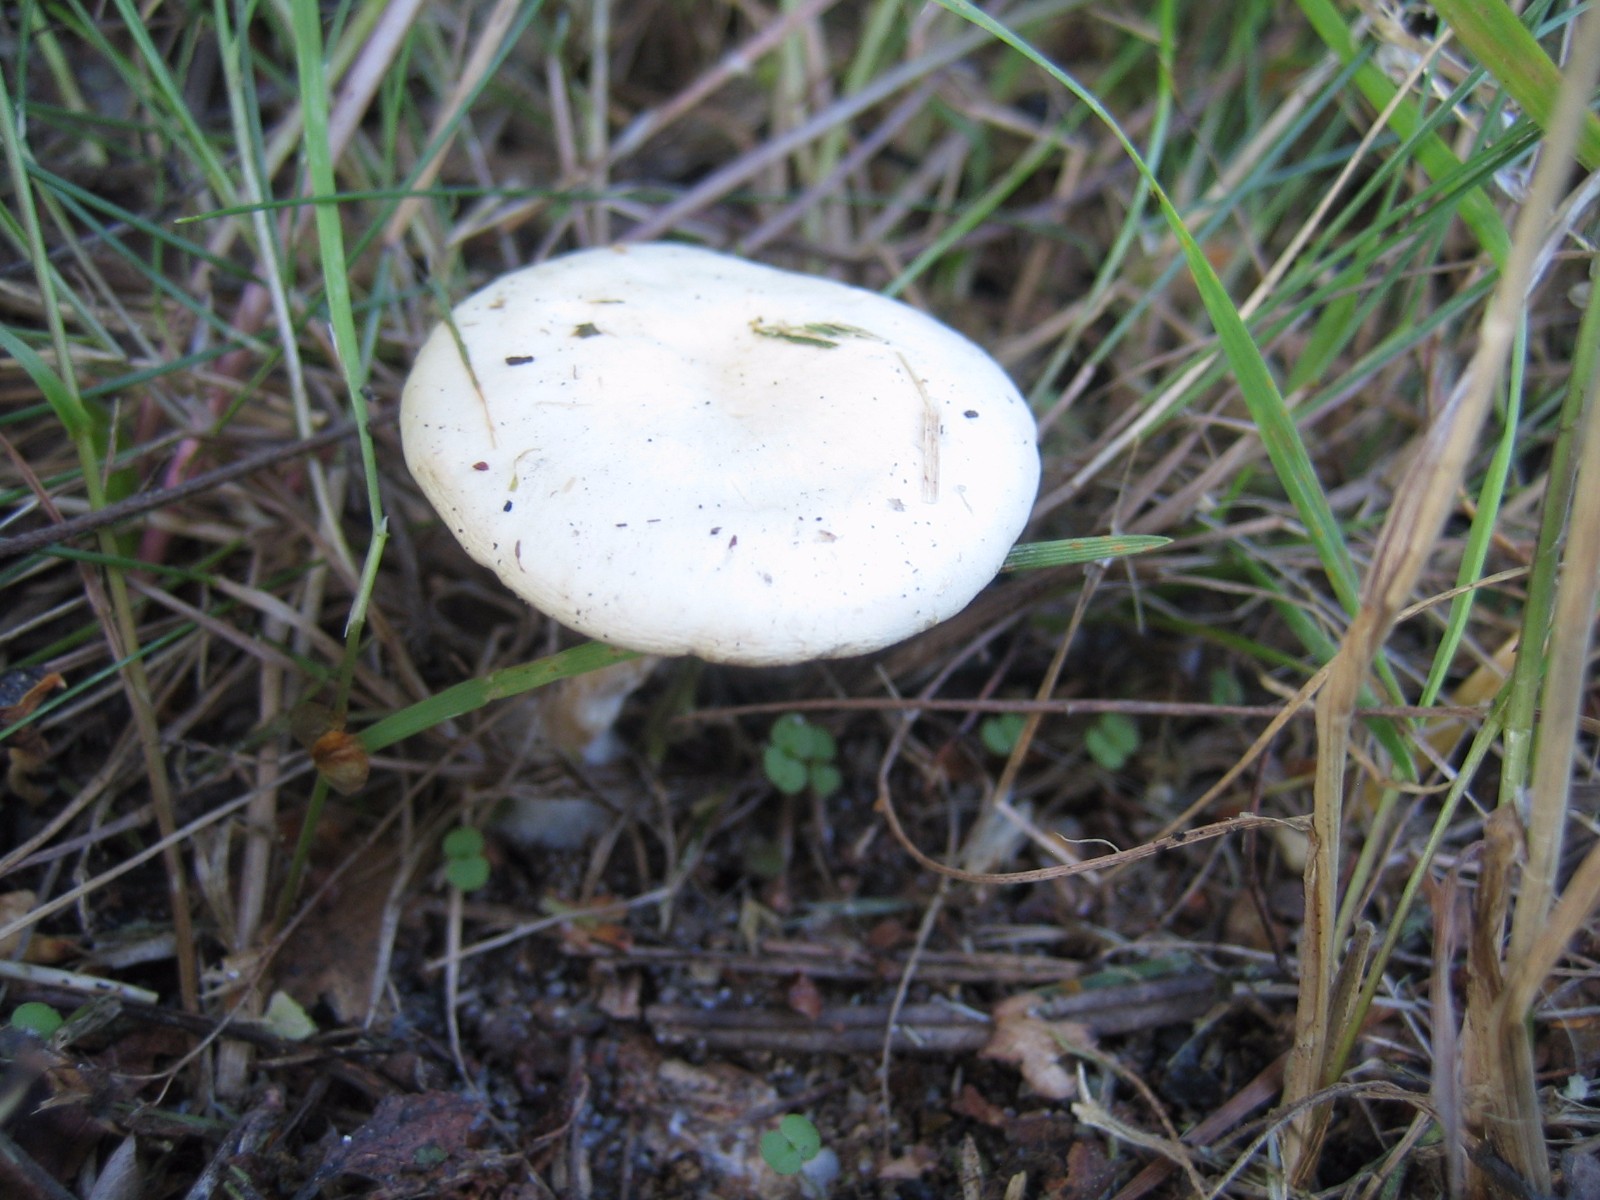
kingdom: Fungi
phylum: Basidiomycota
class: Agaricomycetes
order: Agaricales
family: Tricholomataceae
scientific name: Tricholomataceae
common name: ridderhatfamilien
